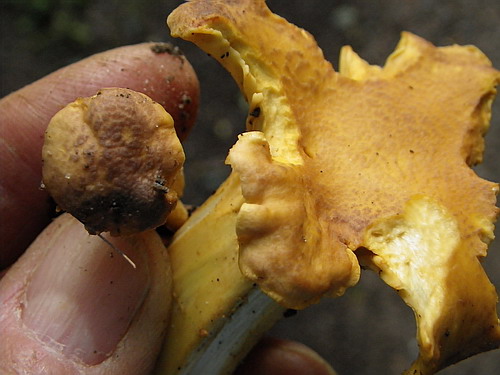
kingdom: Fungi
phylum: Basidiomycota
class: Agaricomycetes
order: Cantharellales
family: Hydnaceae
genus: Cantharellus
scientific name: Cantharellus amethysteus
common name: ametyst-kantarel
